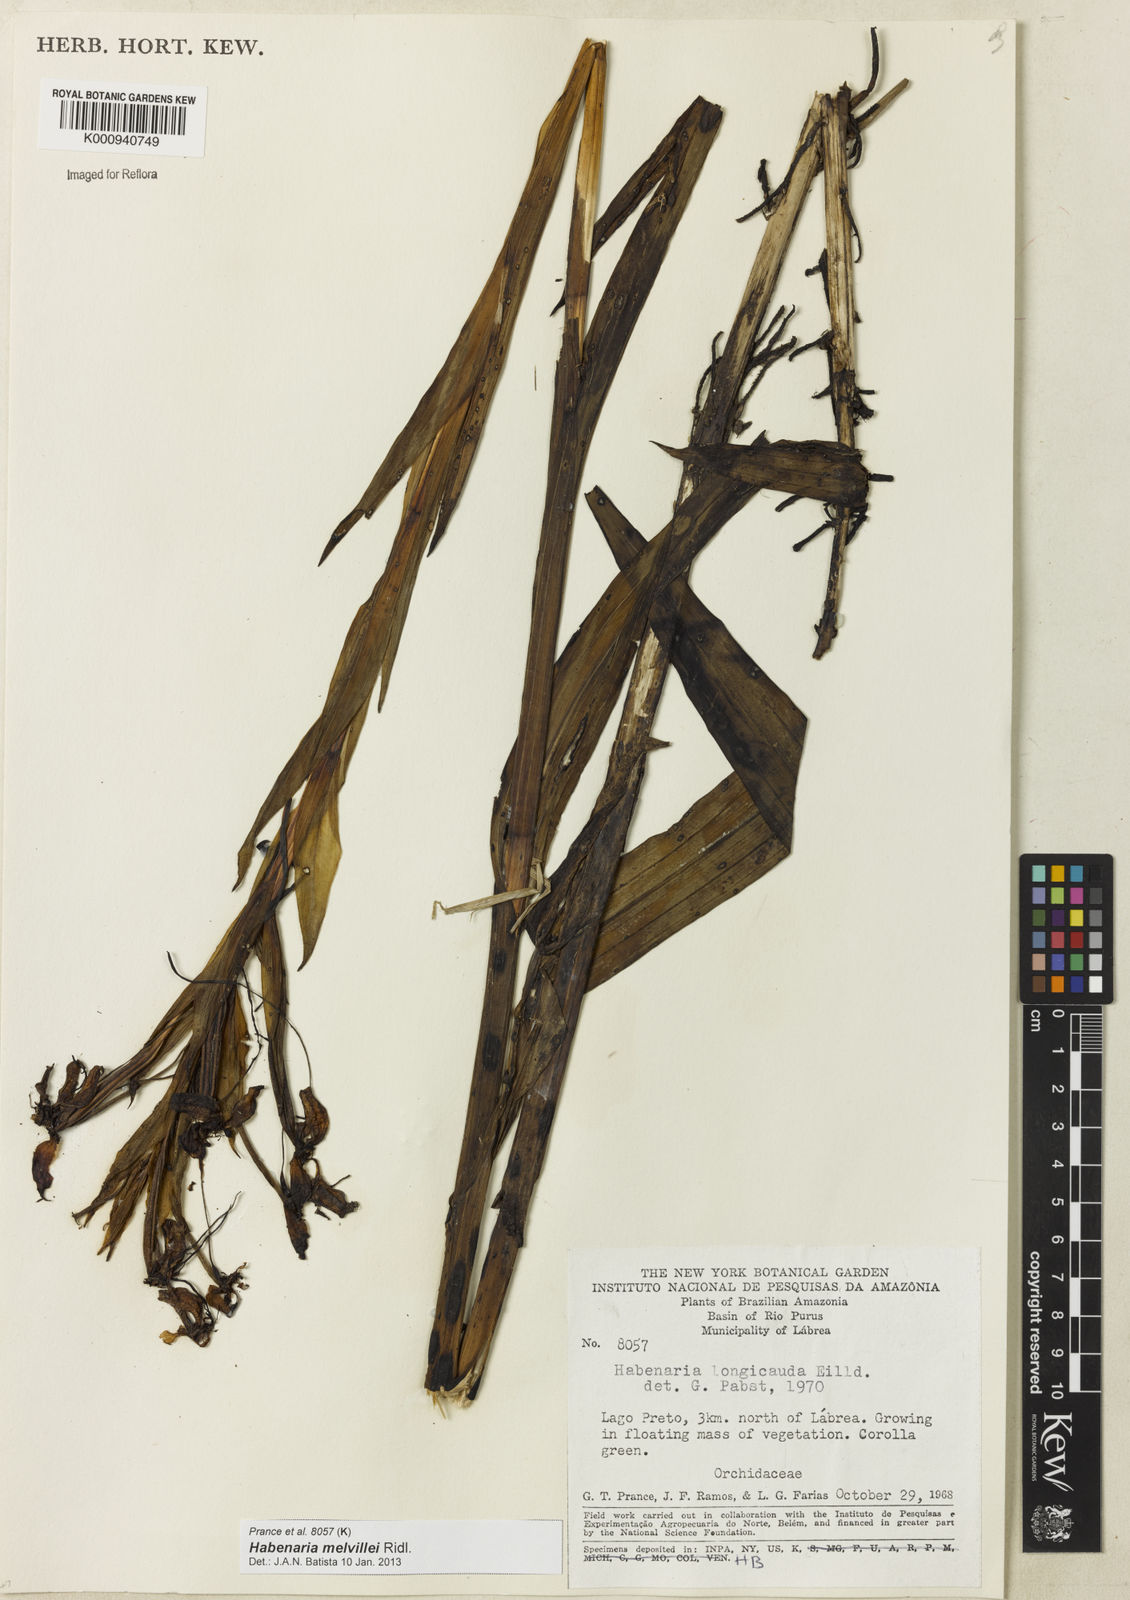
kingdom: Plantae
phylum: Tracheophyta
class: Liliopsida
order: Asparagales
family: Orchidaceae
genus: Habenaria
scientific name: Habenaria melvillei
